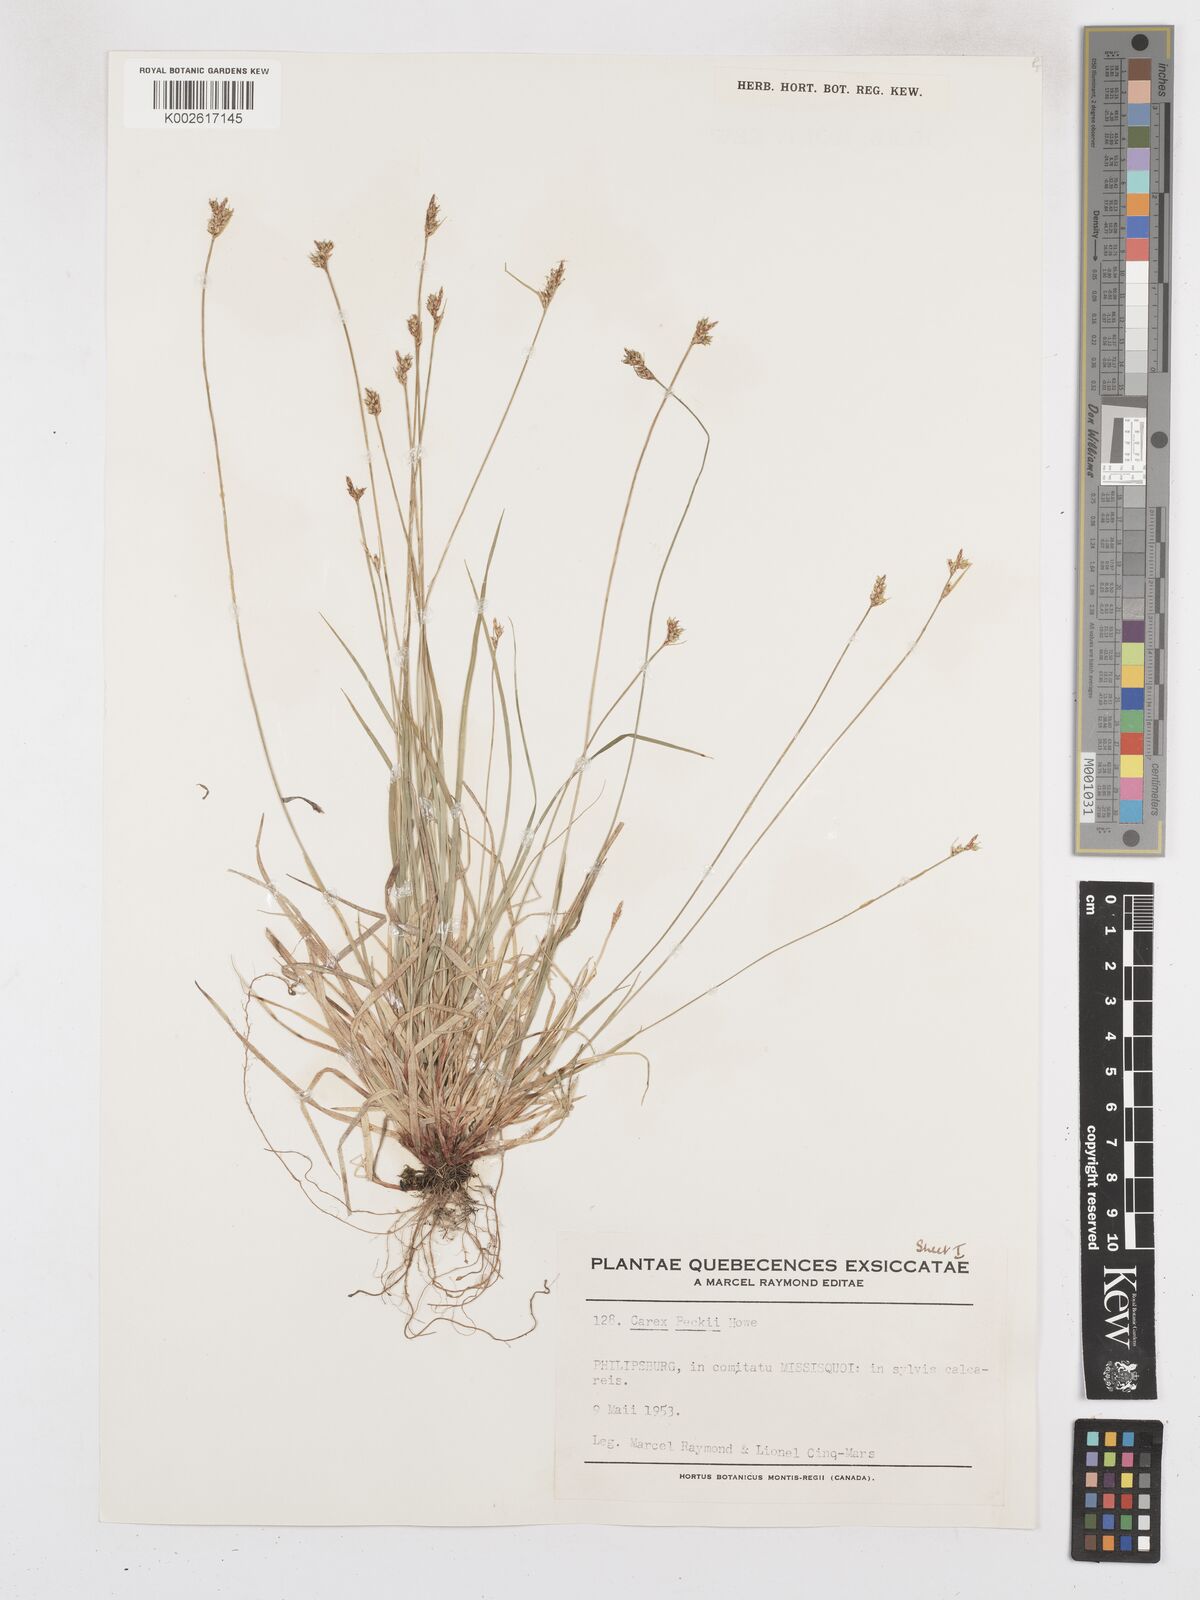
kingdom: Plantae
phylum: Tracheophyta
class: Liliopsida
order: Poales
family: Cyperaceae
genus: Carex
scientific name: Carex peckii
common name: Peck's oak sedge
